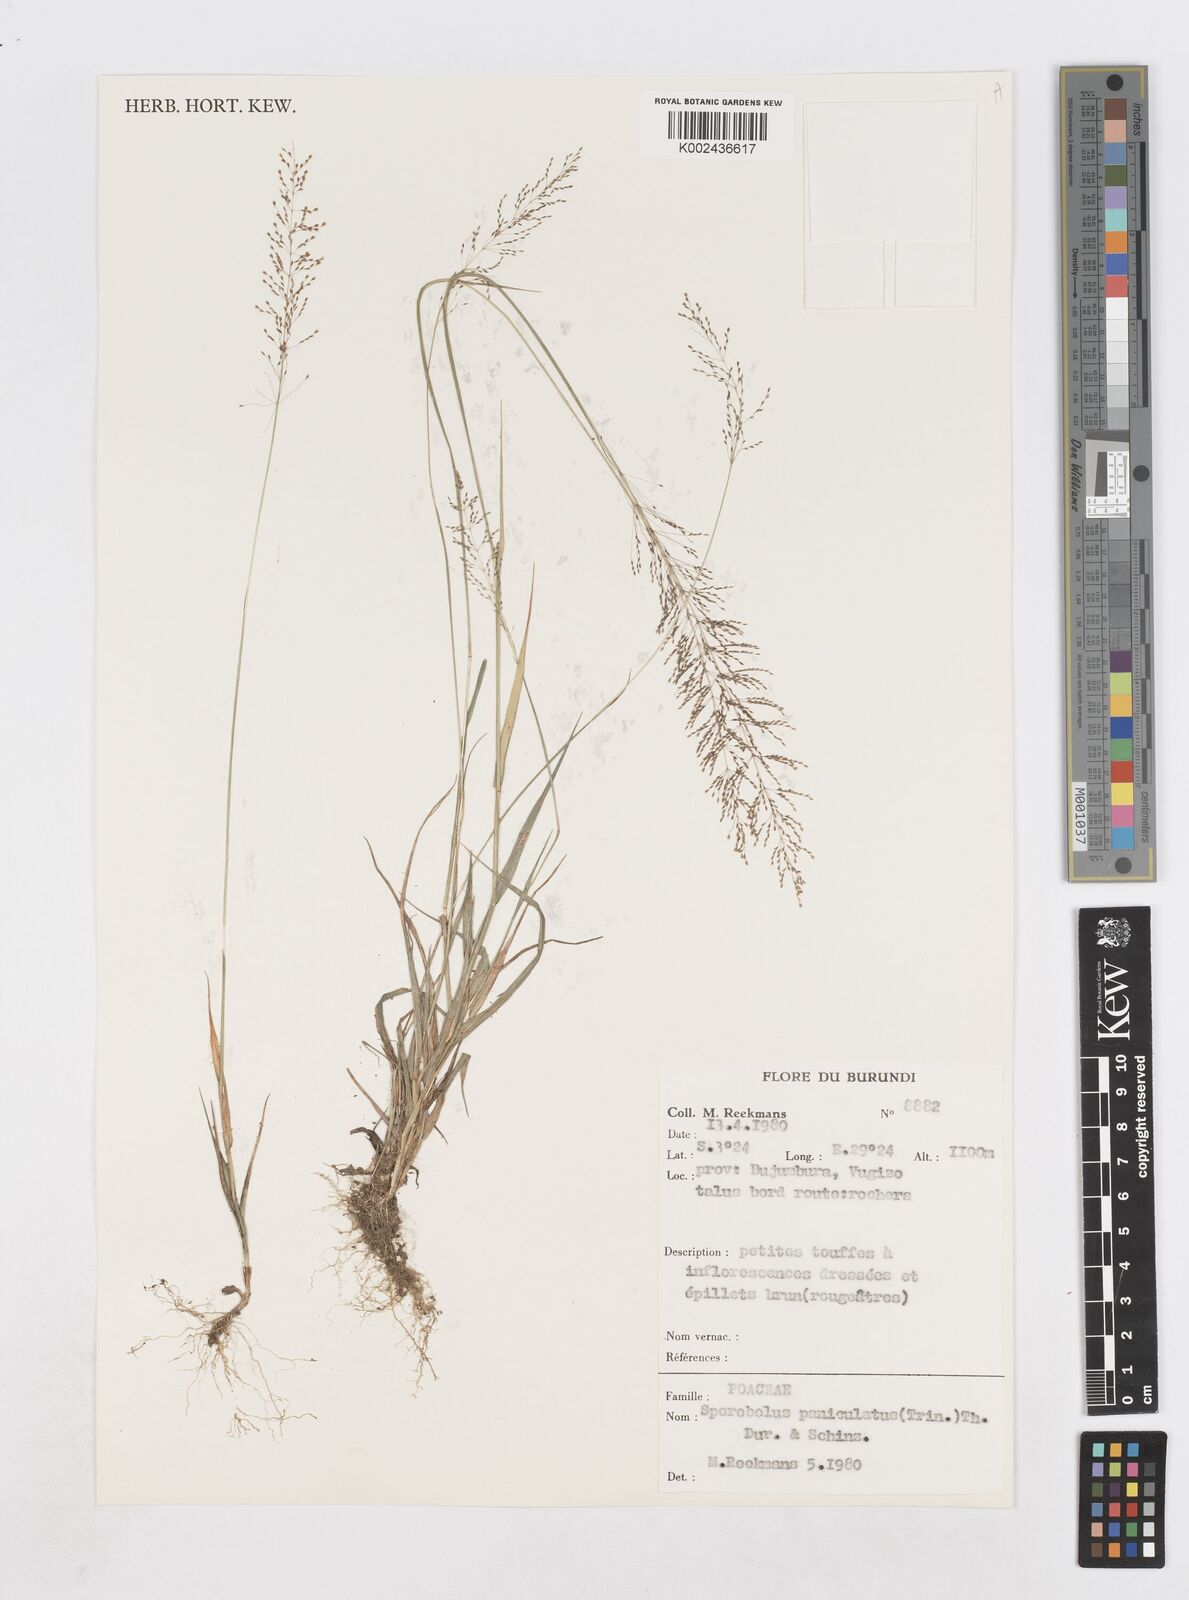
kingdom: Plantae
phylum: Tracheophyta
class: Liliopsida
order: Poales
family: Poaceae
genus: Sporobolus
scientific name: Sporobolus paniculatus
